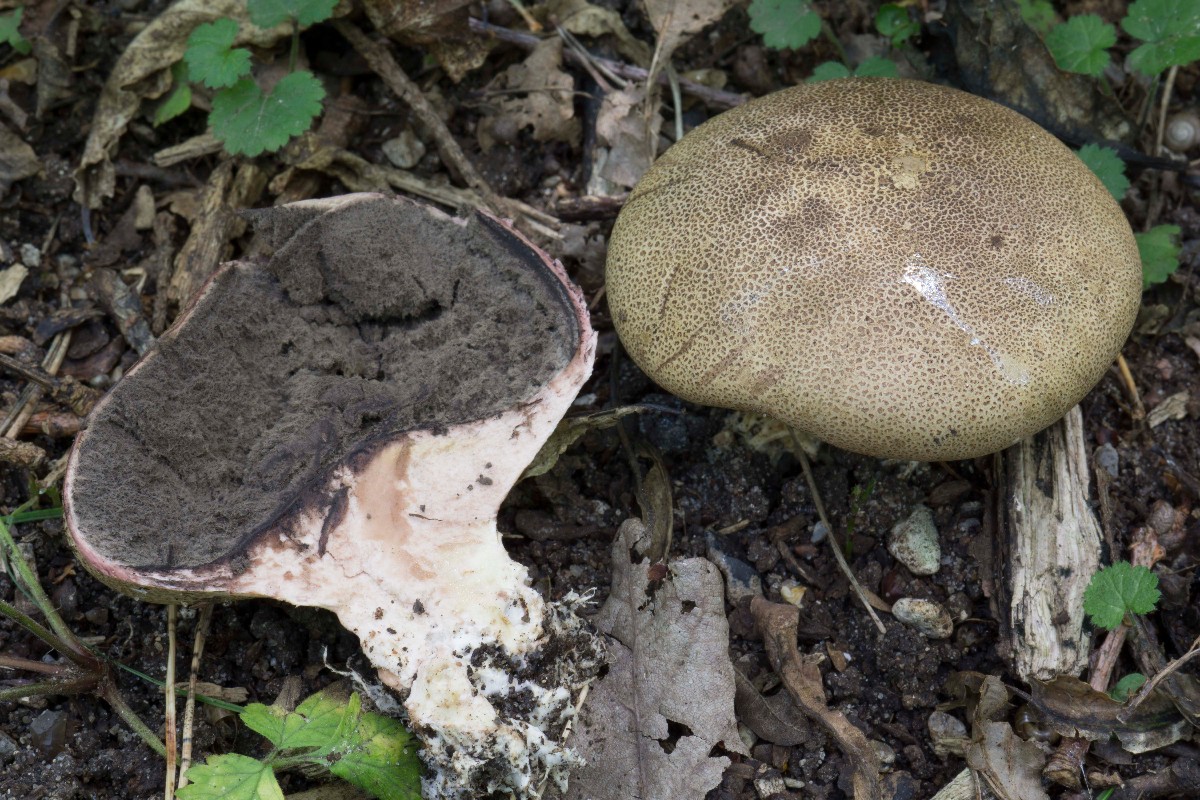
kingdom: Fungi
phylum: Basidiomycota
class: Agaricomycetes
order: Boletales
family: Sclerodermataceae
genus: Scleroderma
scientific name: Scleroderma areolatum
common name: plettet bruskbold
